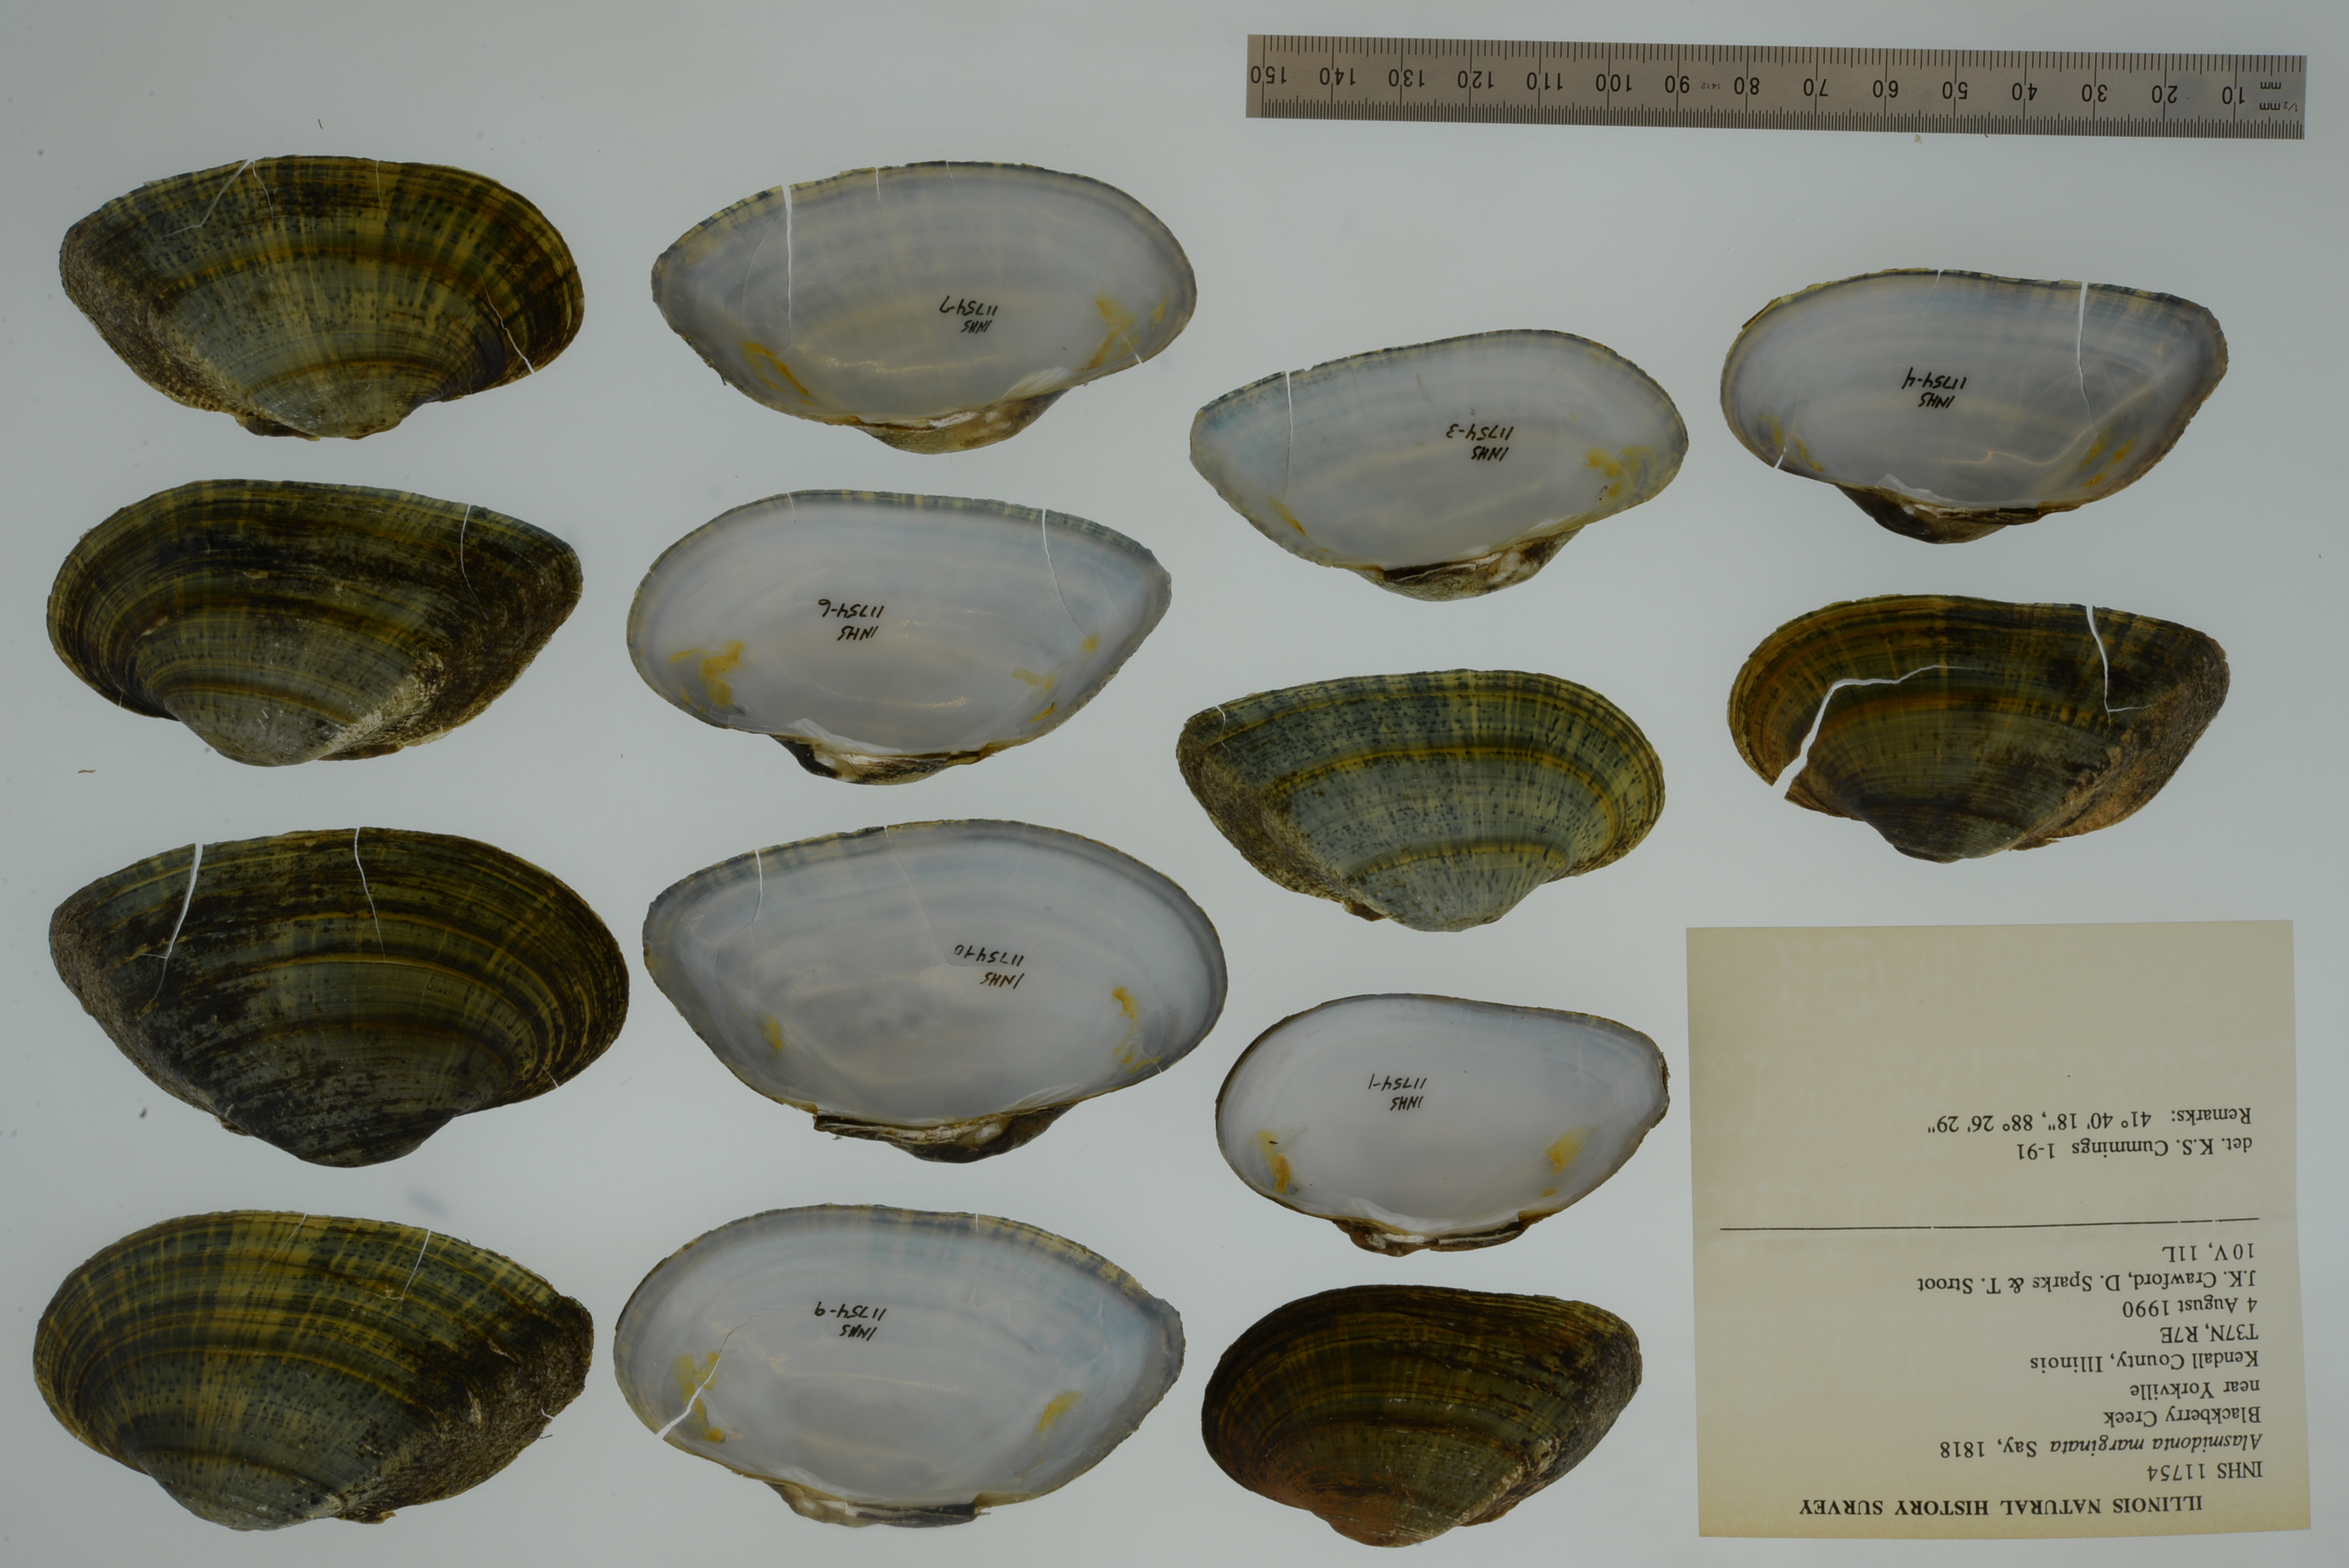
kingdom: Animalia
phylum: Mollusca
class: Bivalvia
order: Unionida
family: Unionidae
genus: Alasmidonta
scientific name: Alasmidonta marginata
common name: Elktoe
